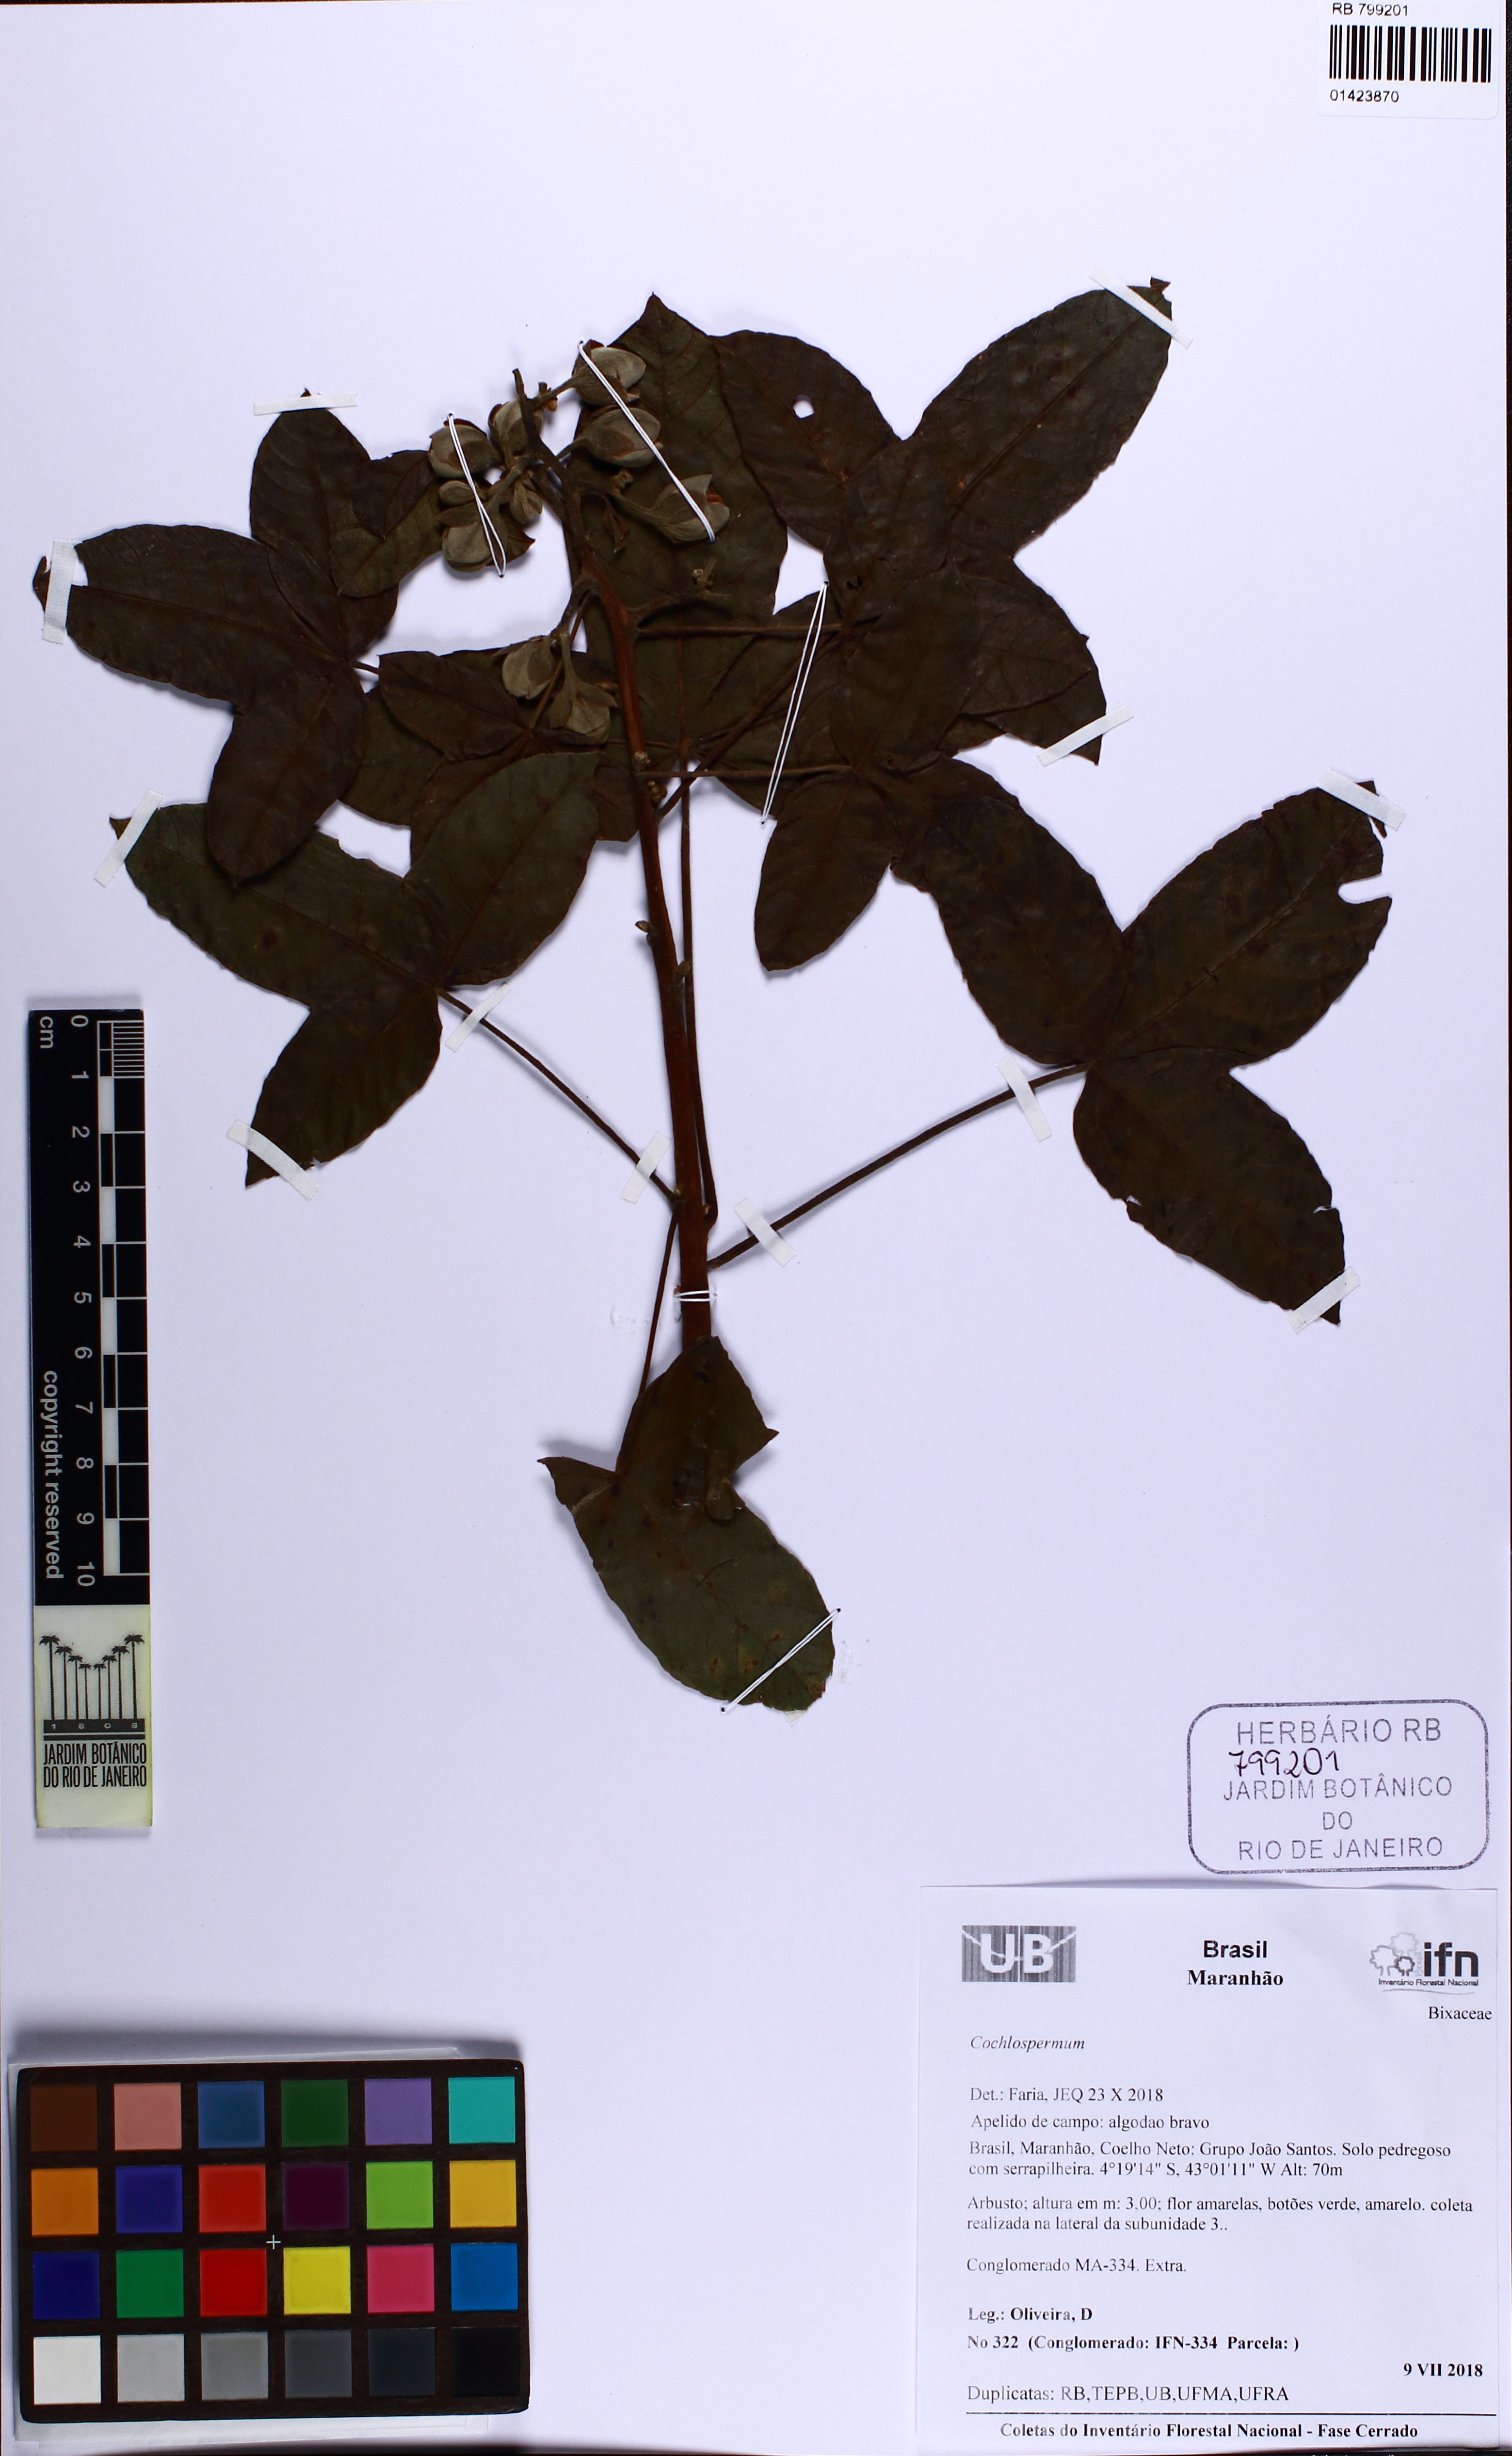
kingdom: Plantae
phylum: Tracheophyta
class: Magnoliopsida
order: Malvales
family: Cochlospermaceae
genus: Cochlospermum
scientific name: Cochlospermum
